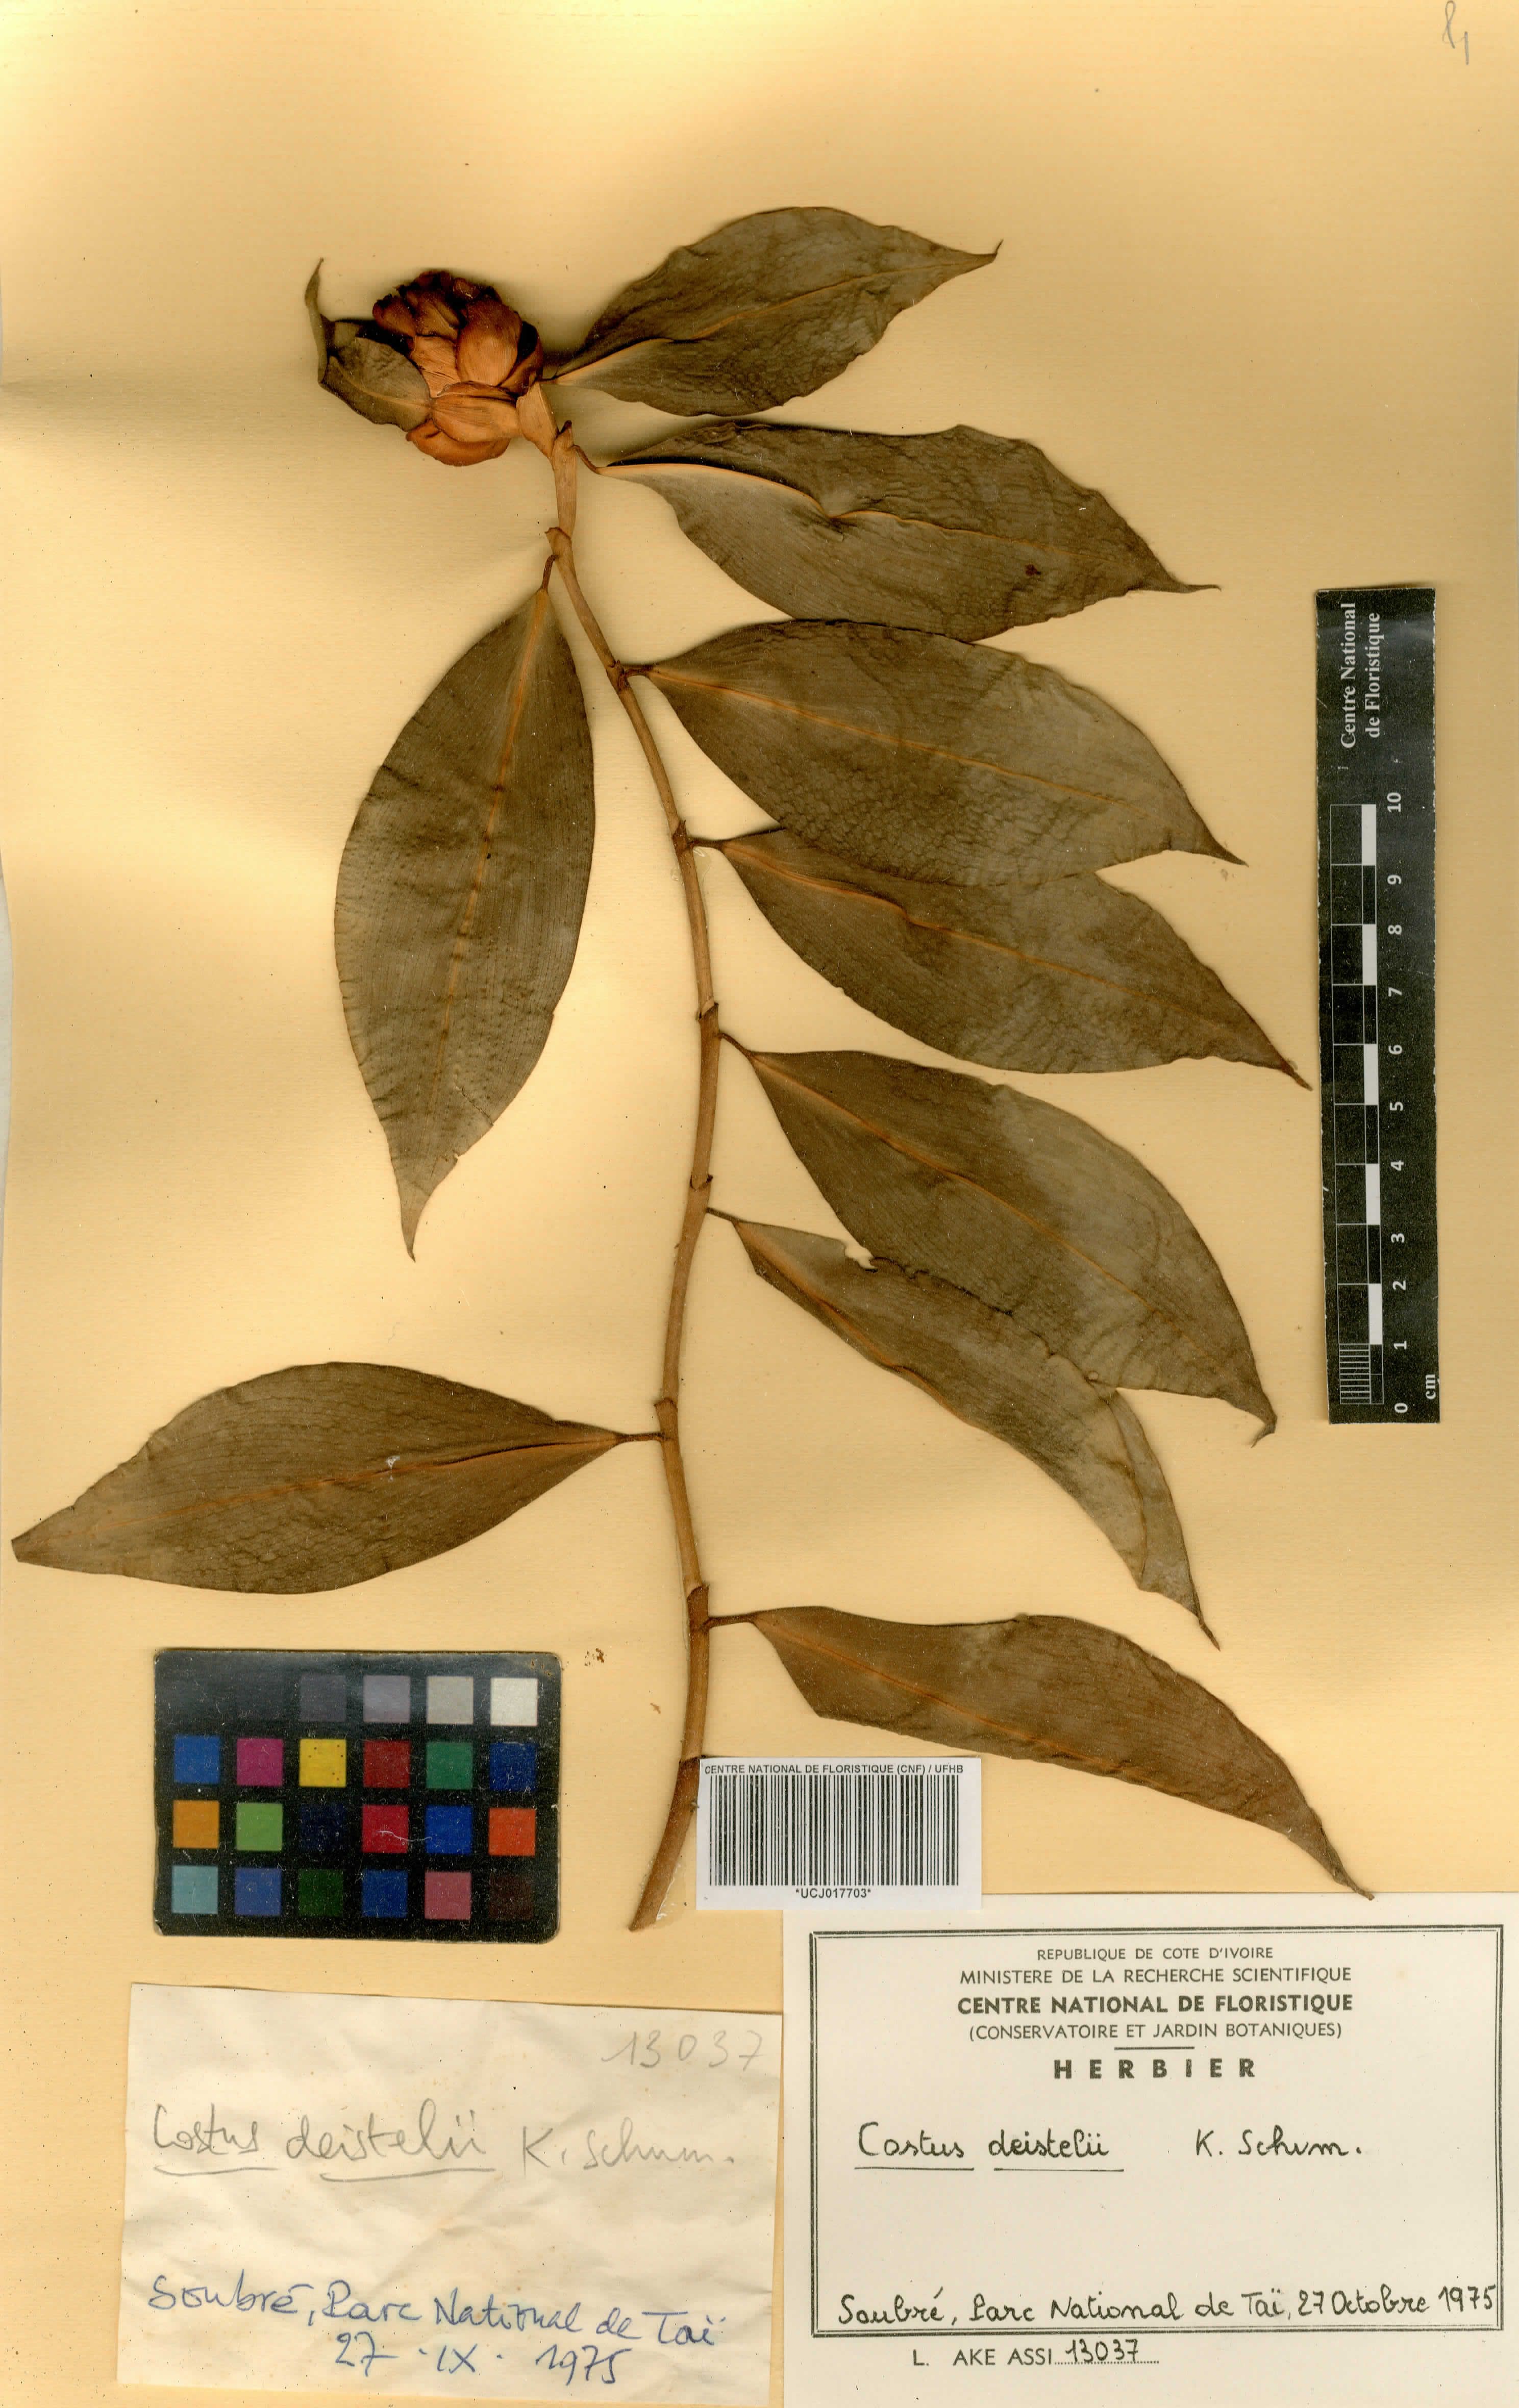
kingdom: Plantae
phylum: Tracheophyta
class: Liliopsida
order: Zingiberales
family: Costaceae
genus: Costus
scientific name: Costus afer
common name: Spiral-ginger
